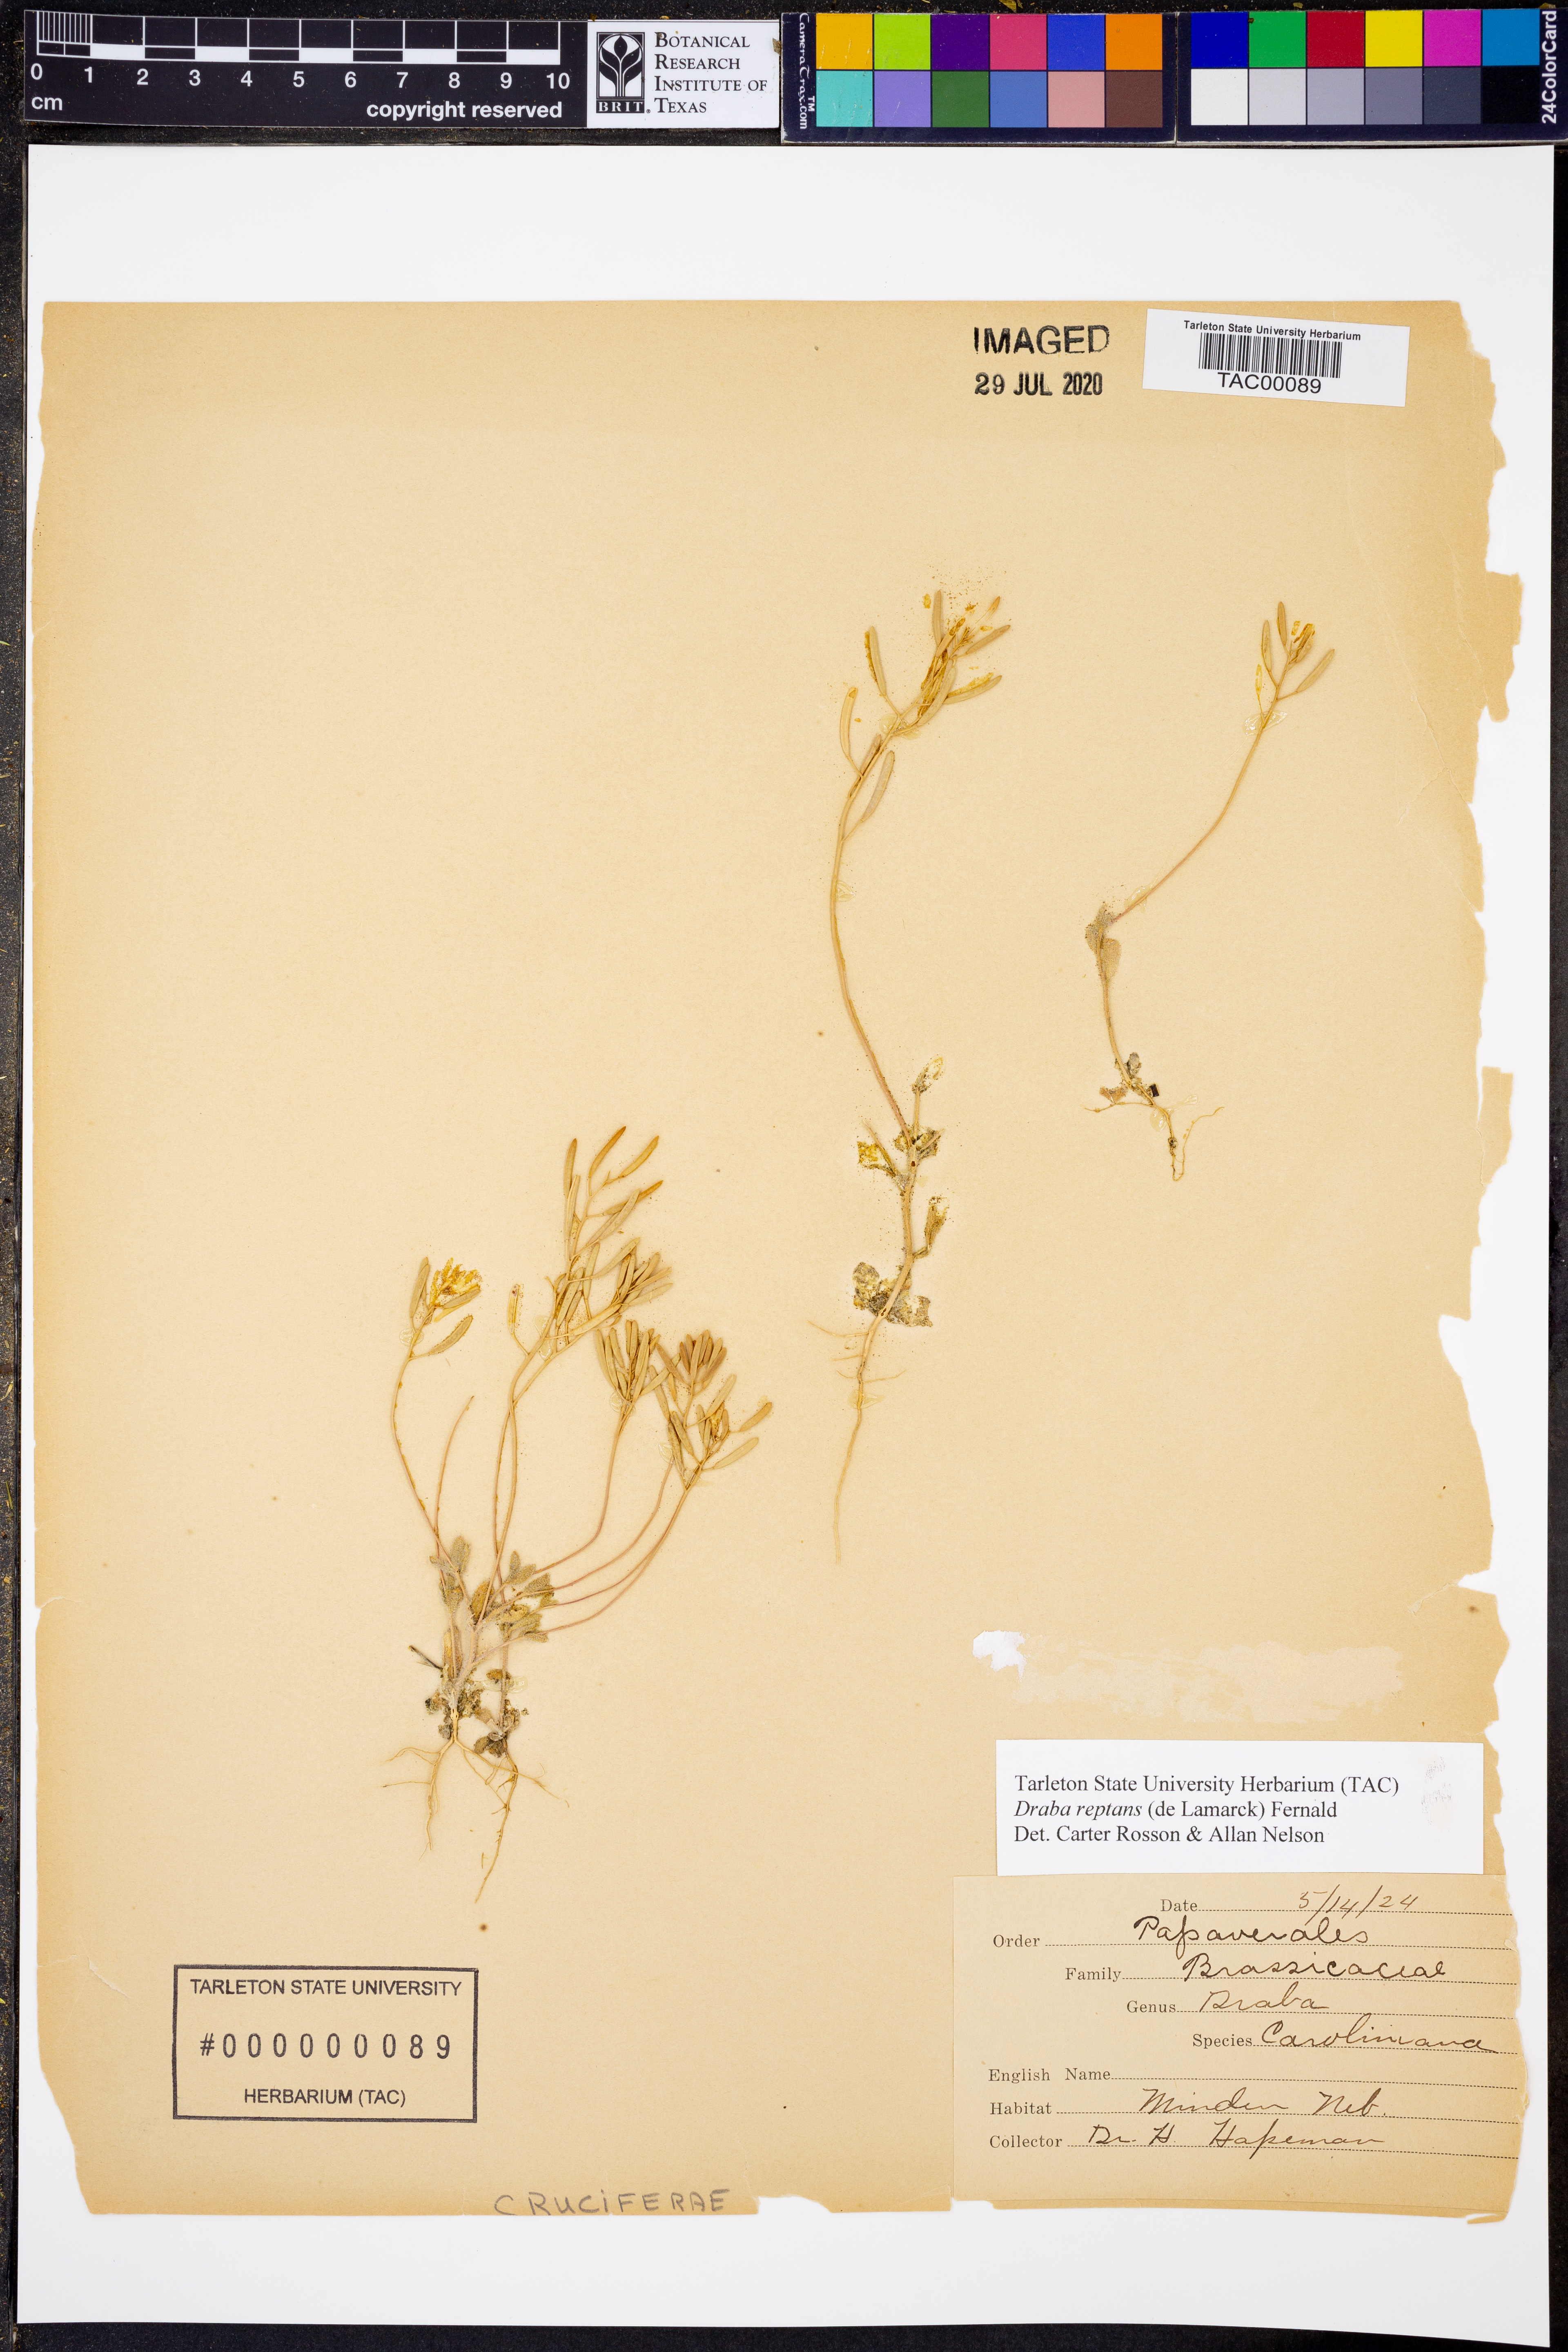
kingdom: Plantae
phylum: Tracheophyta
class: Magnoliopsida
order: Brassicales
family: Brassicaceae
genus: Tomostima
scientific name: Tomostima reptans
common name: Carolina draba
